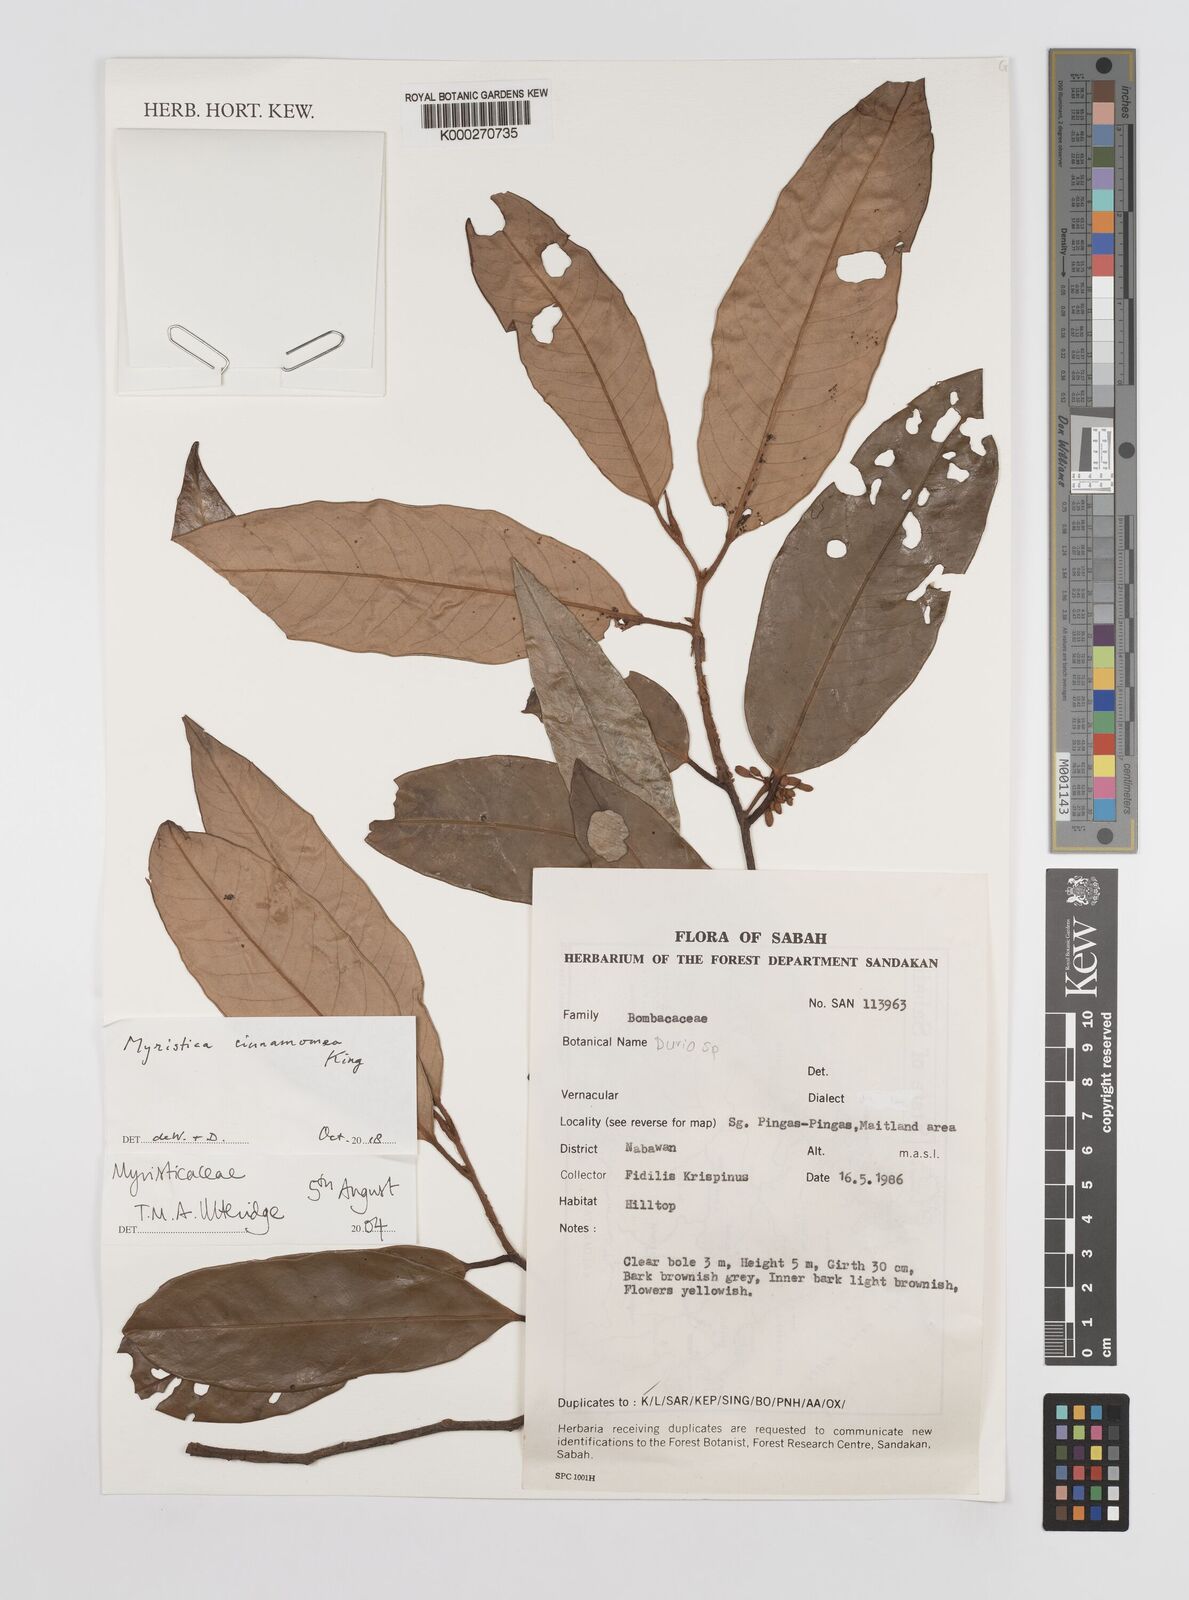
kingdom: Plantae
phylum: Tracheophyta
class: Magnoliopsida
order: Magnoliales
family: Myristicaceae
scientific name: Myristicaceae
